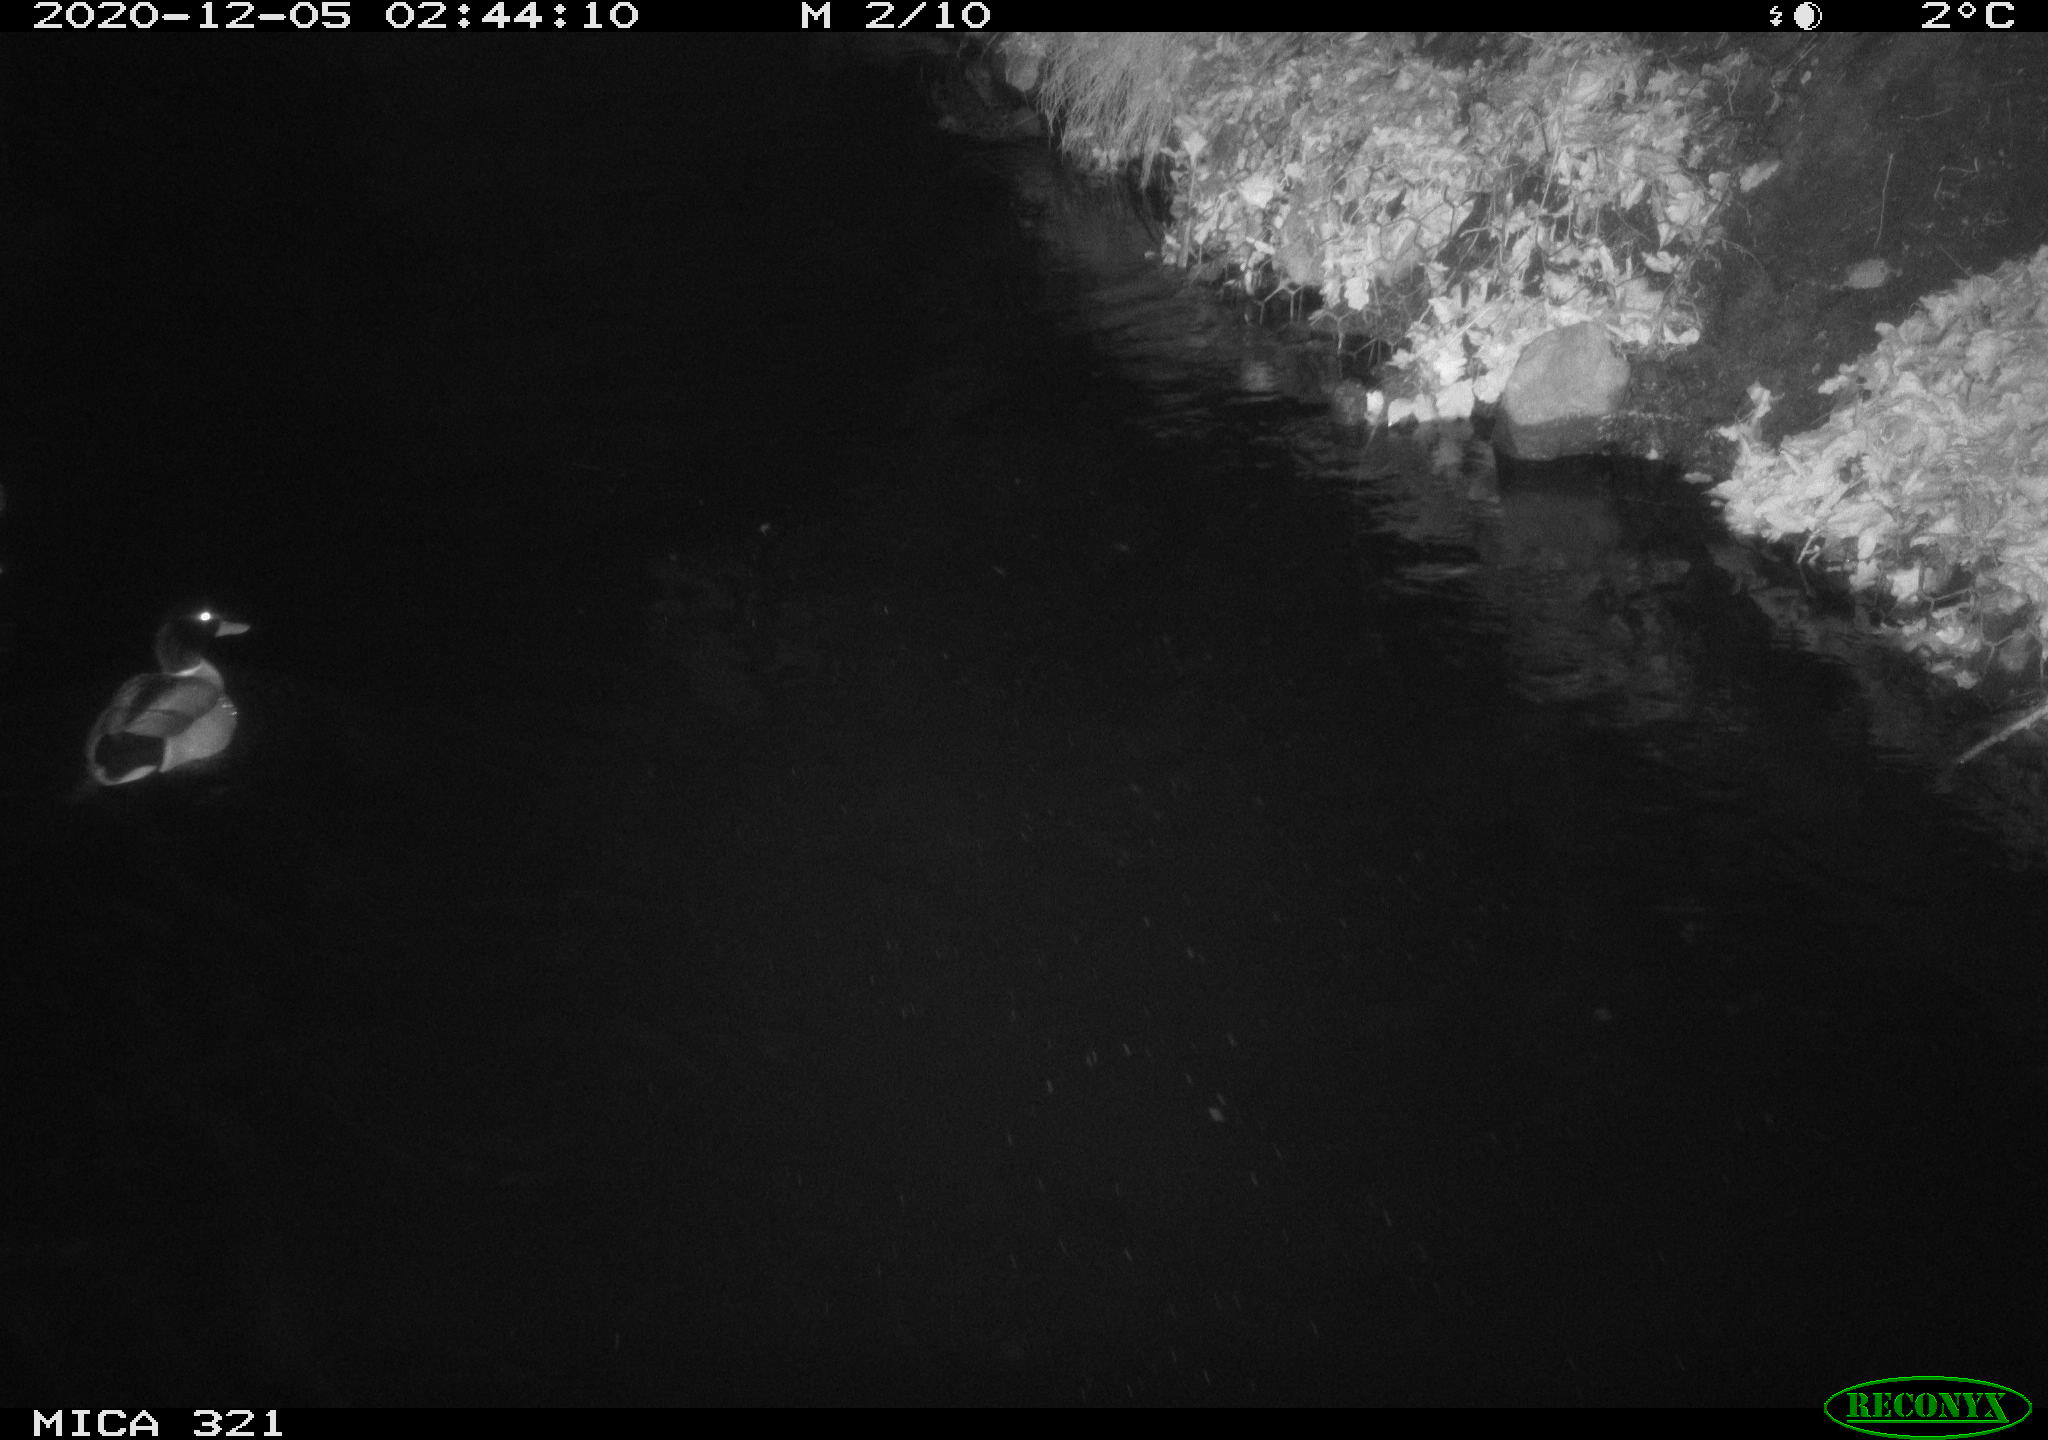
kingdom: Animalia
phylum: Chordata
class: Aves
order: Anseriformes
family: Anatidae
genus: Anas
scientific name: Anas platyrhynchos
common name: Mallard
